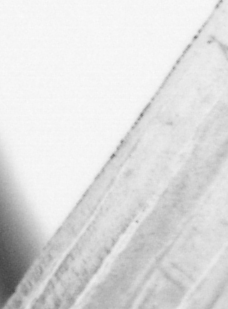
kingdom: Animalia
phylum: Chordata
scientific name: Chordata
